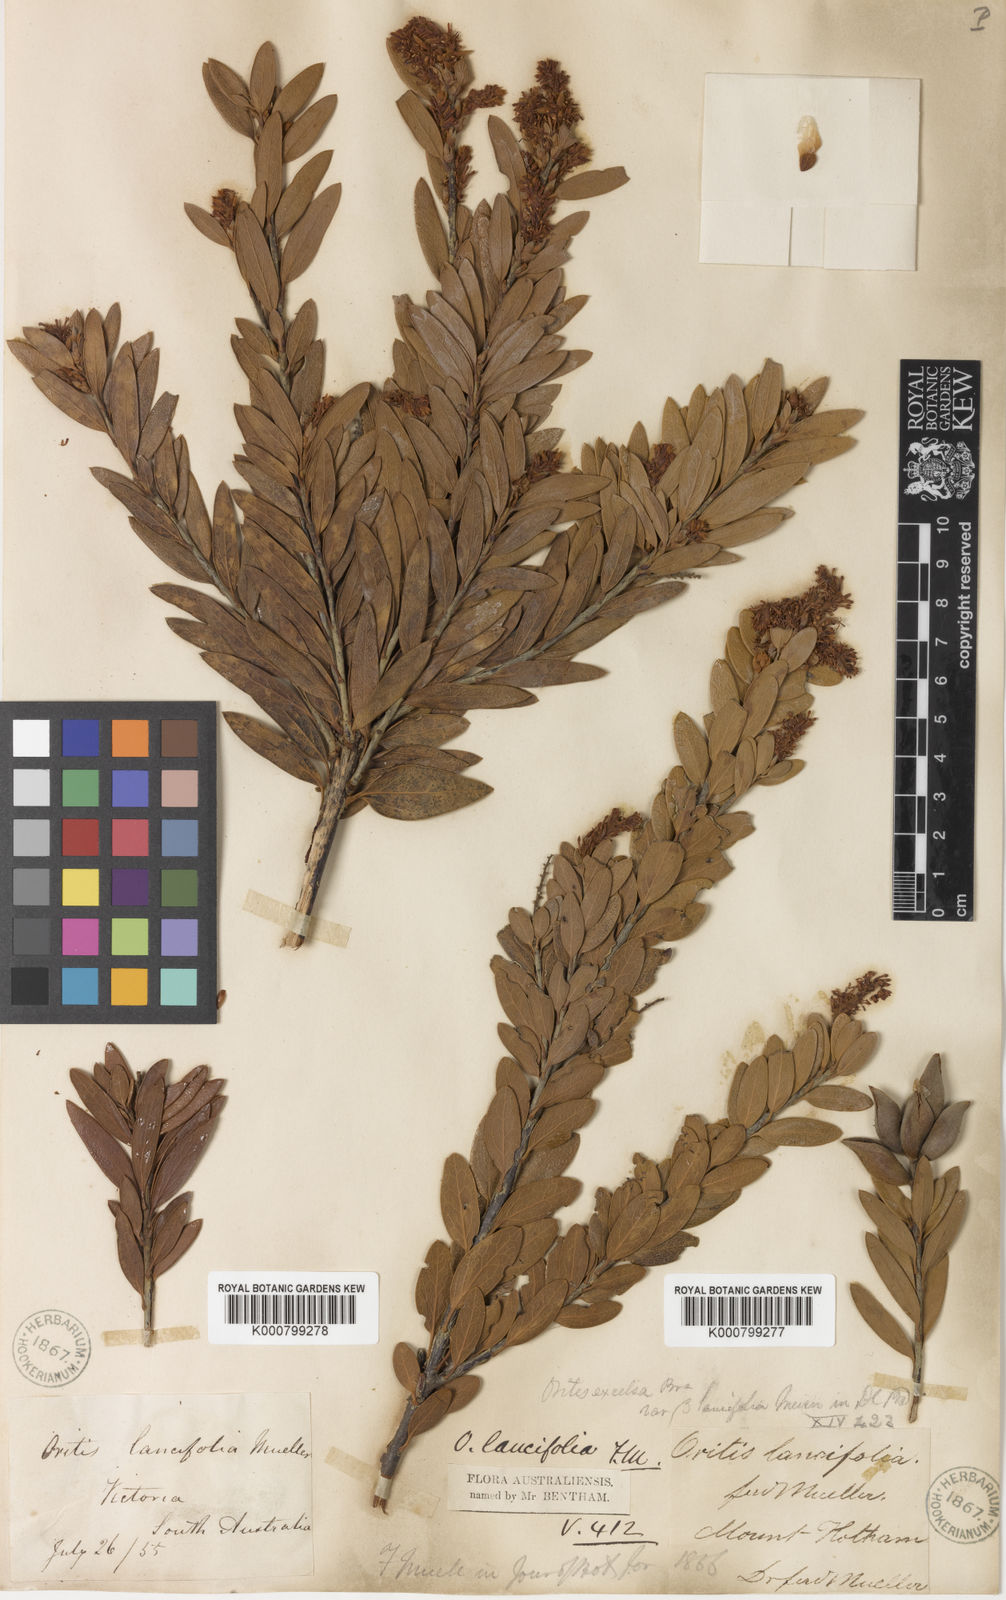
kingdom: Plantae
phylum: Tracheophyta
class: Magnoliopsida
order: Proteales
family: Proteaceae
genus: Orites
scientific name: Orites lancifolius
